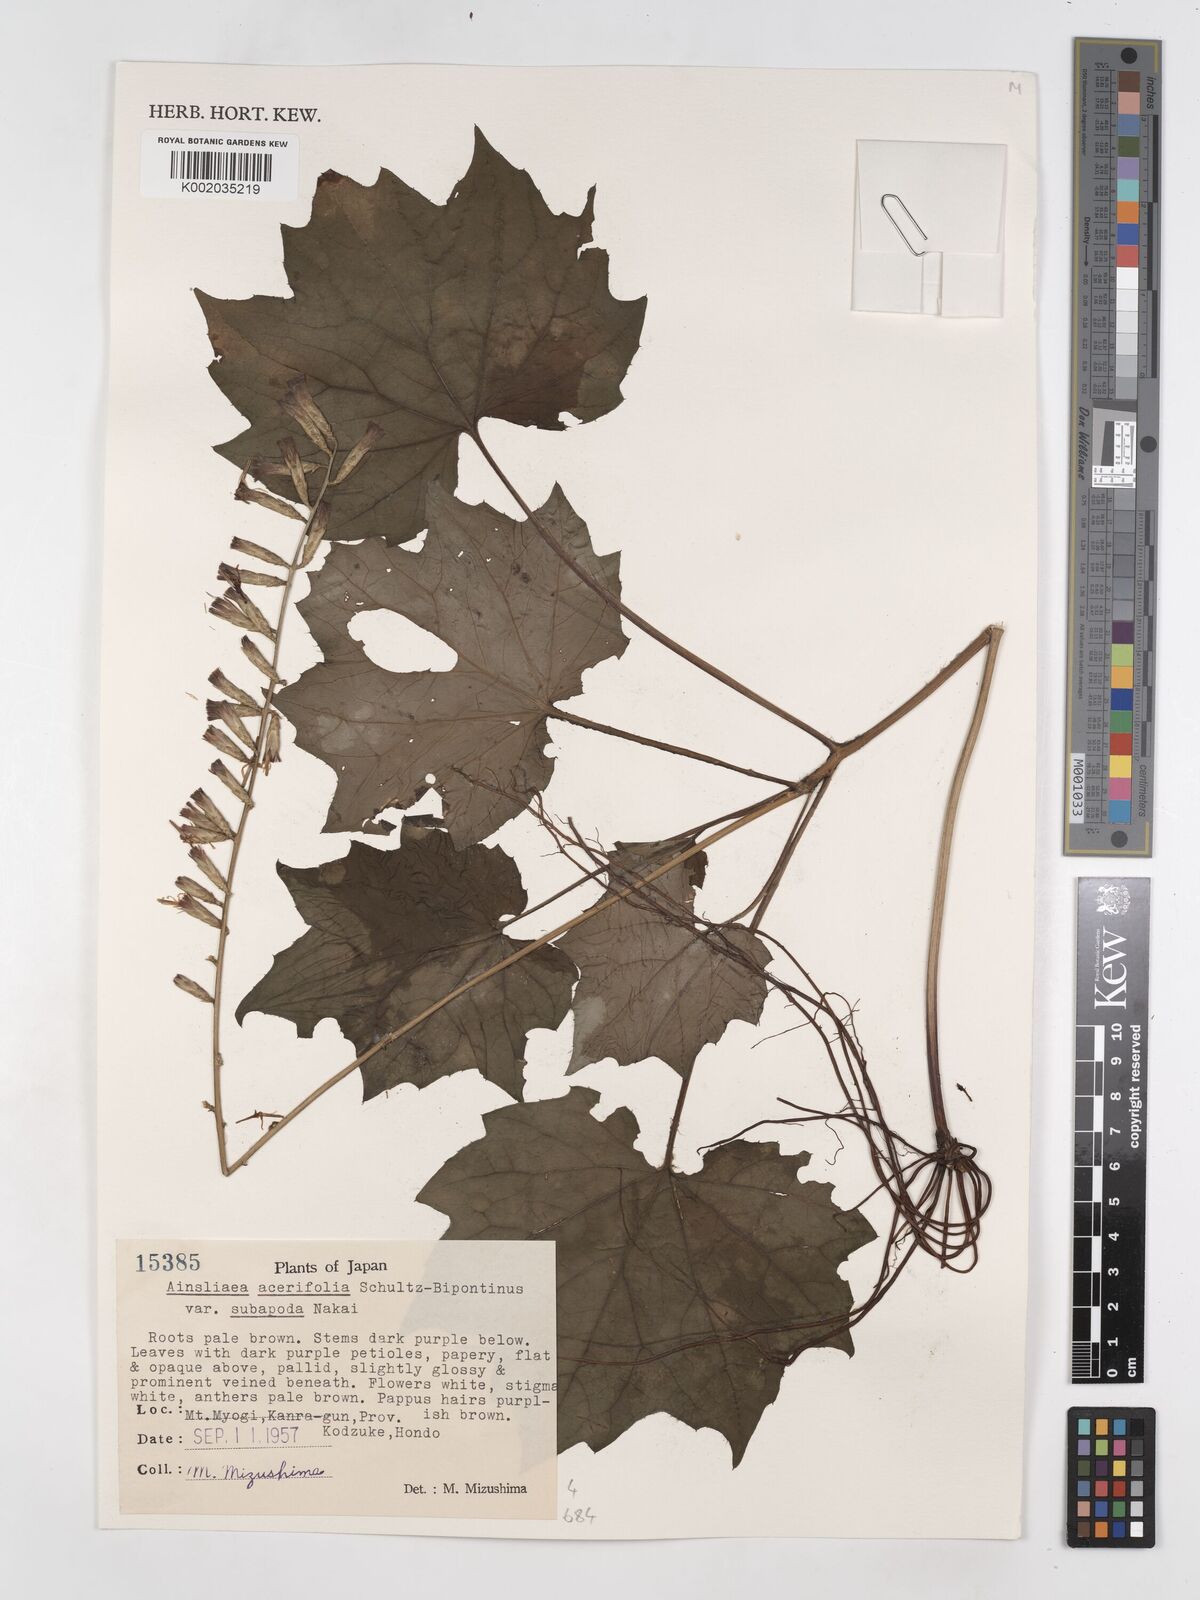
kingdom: Plantae
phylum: Tracheophyta
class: Magnoliopsida
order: Asterales
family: Asteraceae
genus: Ainsliaea
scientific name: Ainsliaea acerifolia
